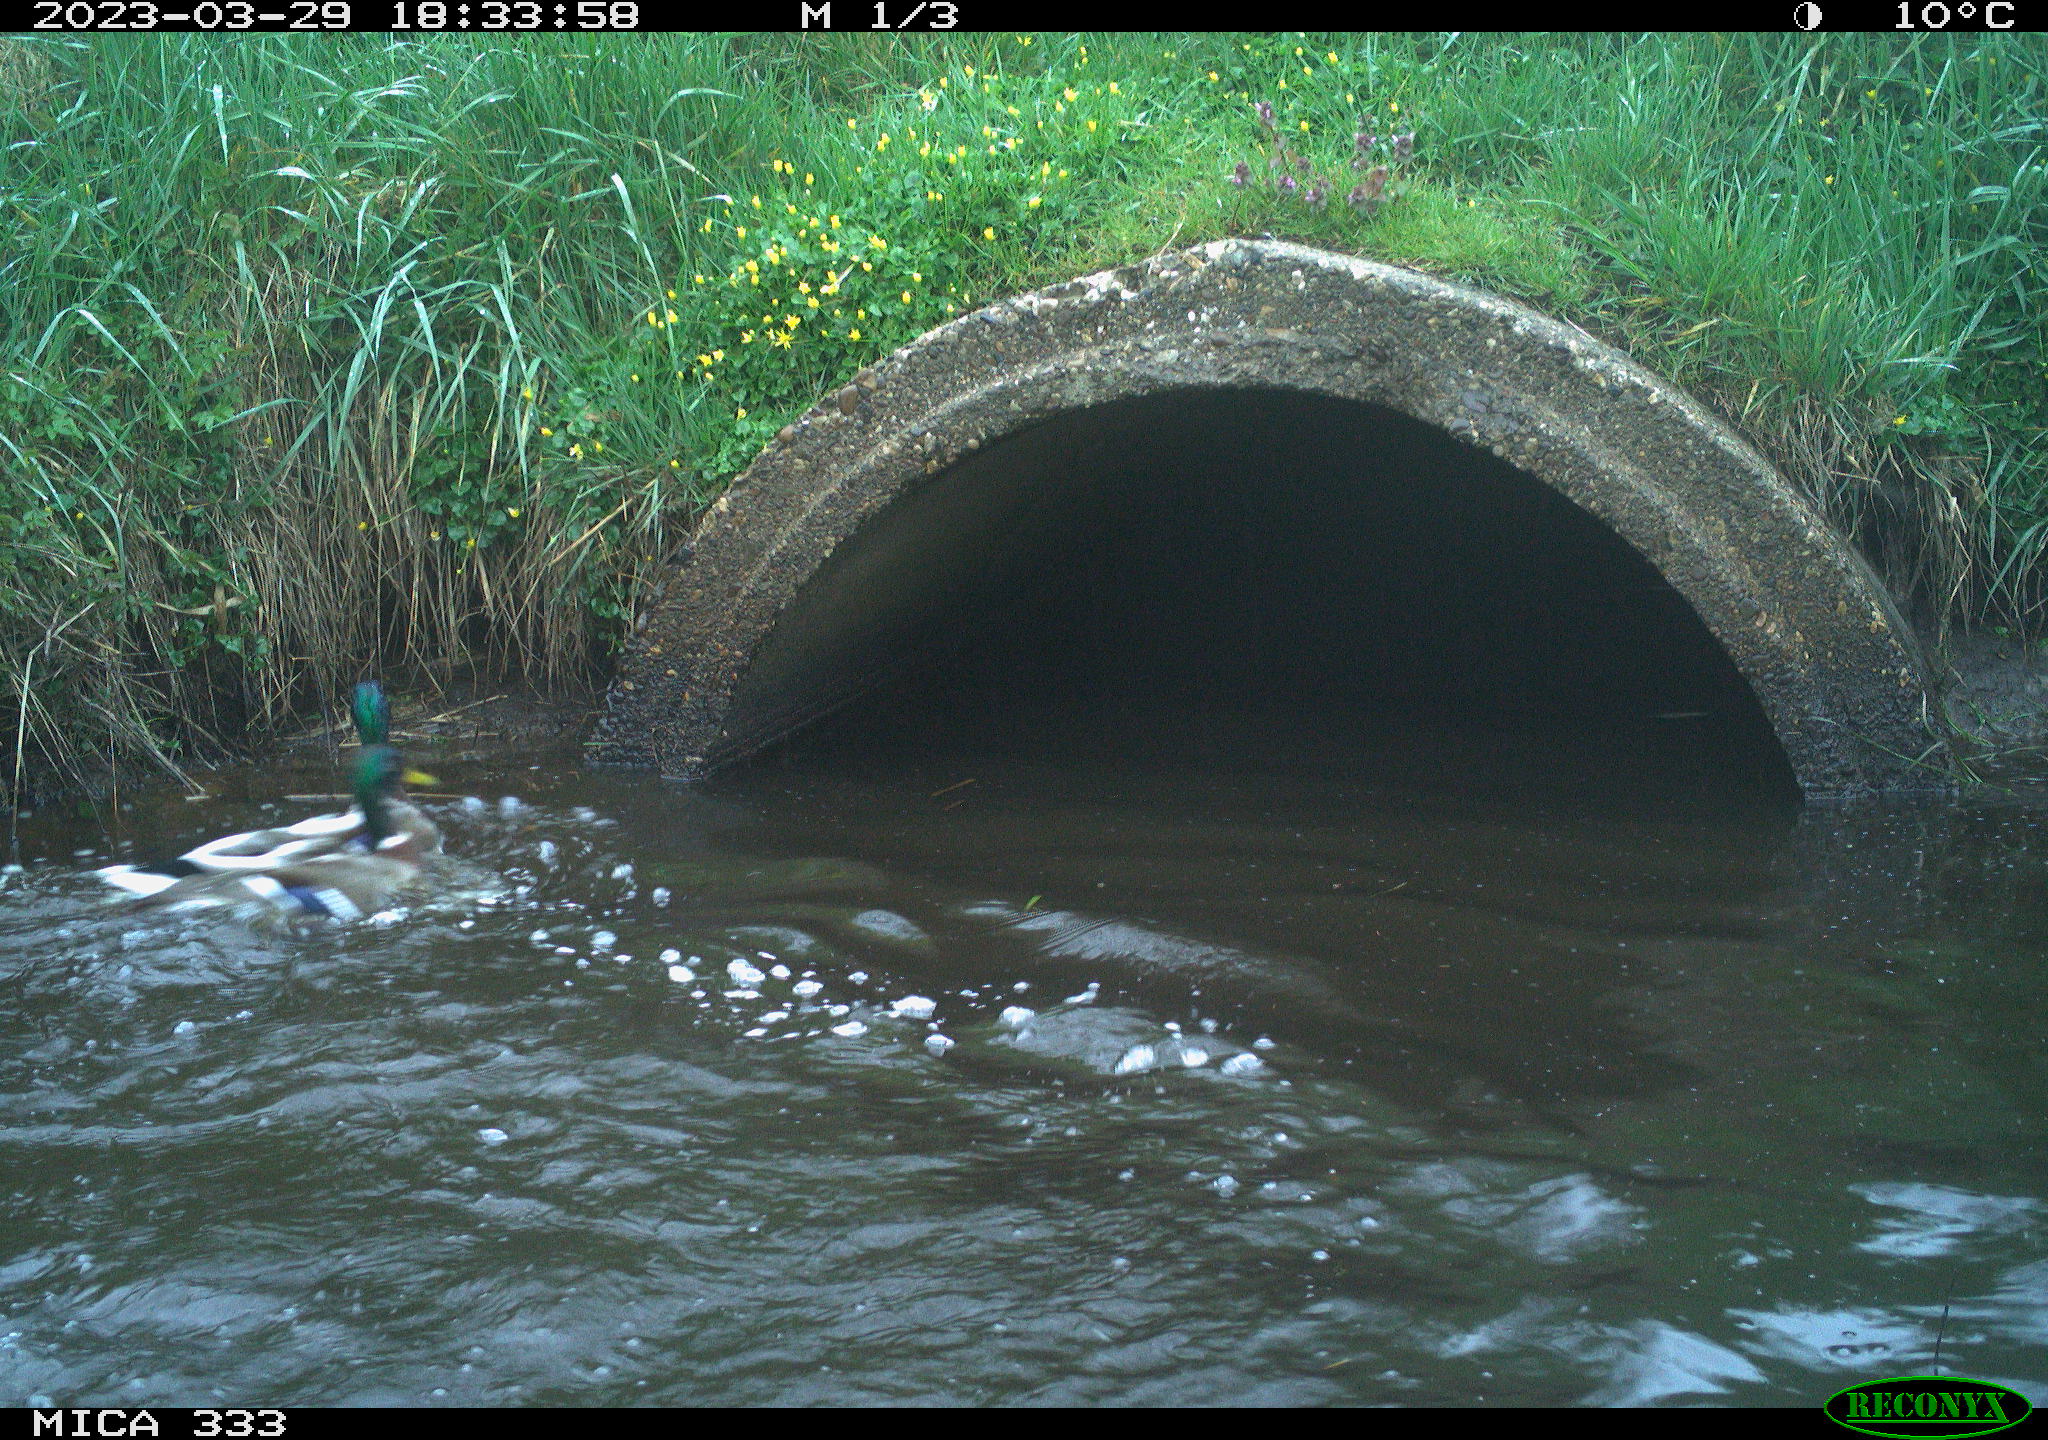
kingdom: Animalia
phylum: Chordata
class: Aves
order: Anseriformes
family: Anatidae
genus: Anas
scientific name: Anas
